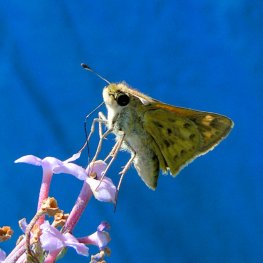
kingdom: Animalia
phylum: Arthropoda
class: Insecta
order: Lepidoptera
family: Hesperiidae
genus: Hylephila
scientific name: Hylephila phyleus
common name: Fiery Skipper
